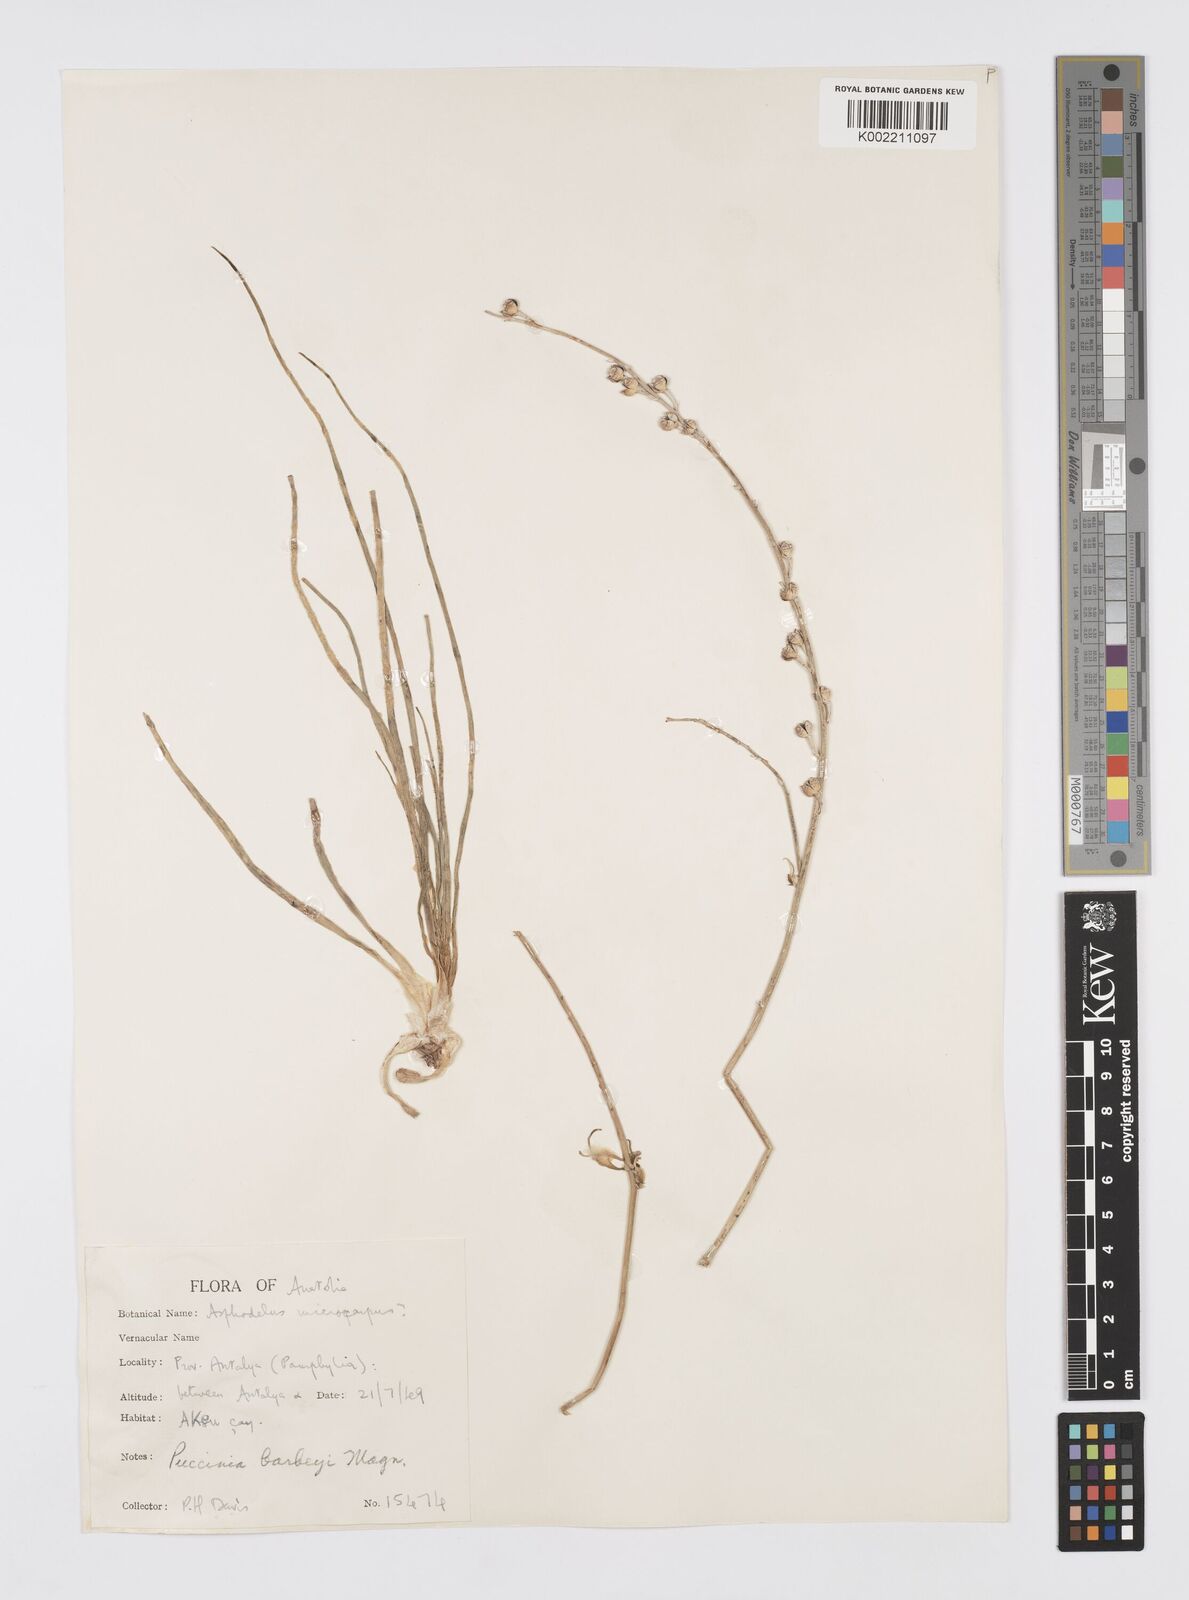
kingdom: Plantae
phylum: Tracheophyta
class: Liliopsida
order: Asparagales
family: Asphodelaceae
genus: Asphodelus
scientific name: Asphodelus fistulosus
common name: Onionweed
